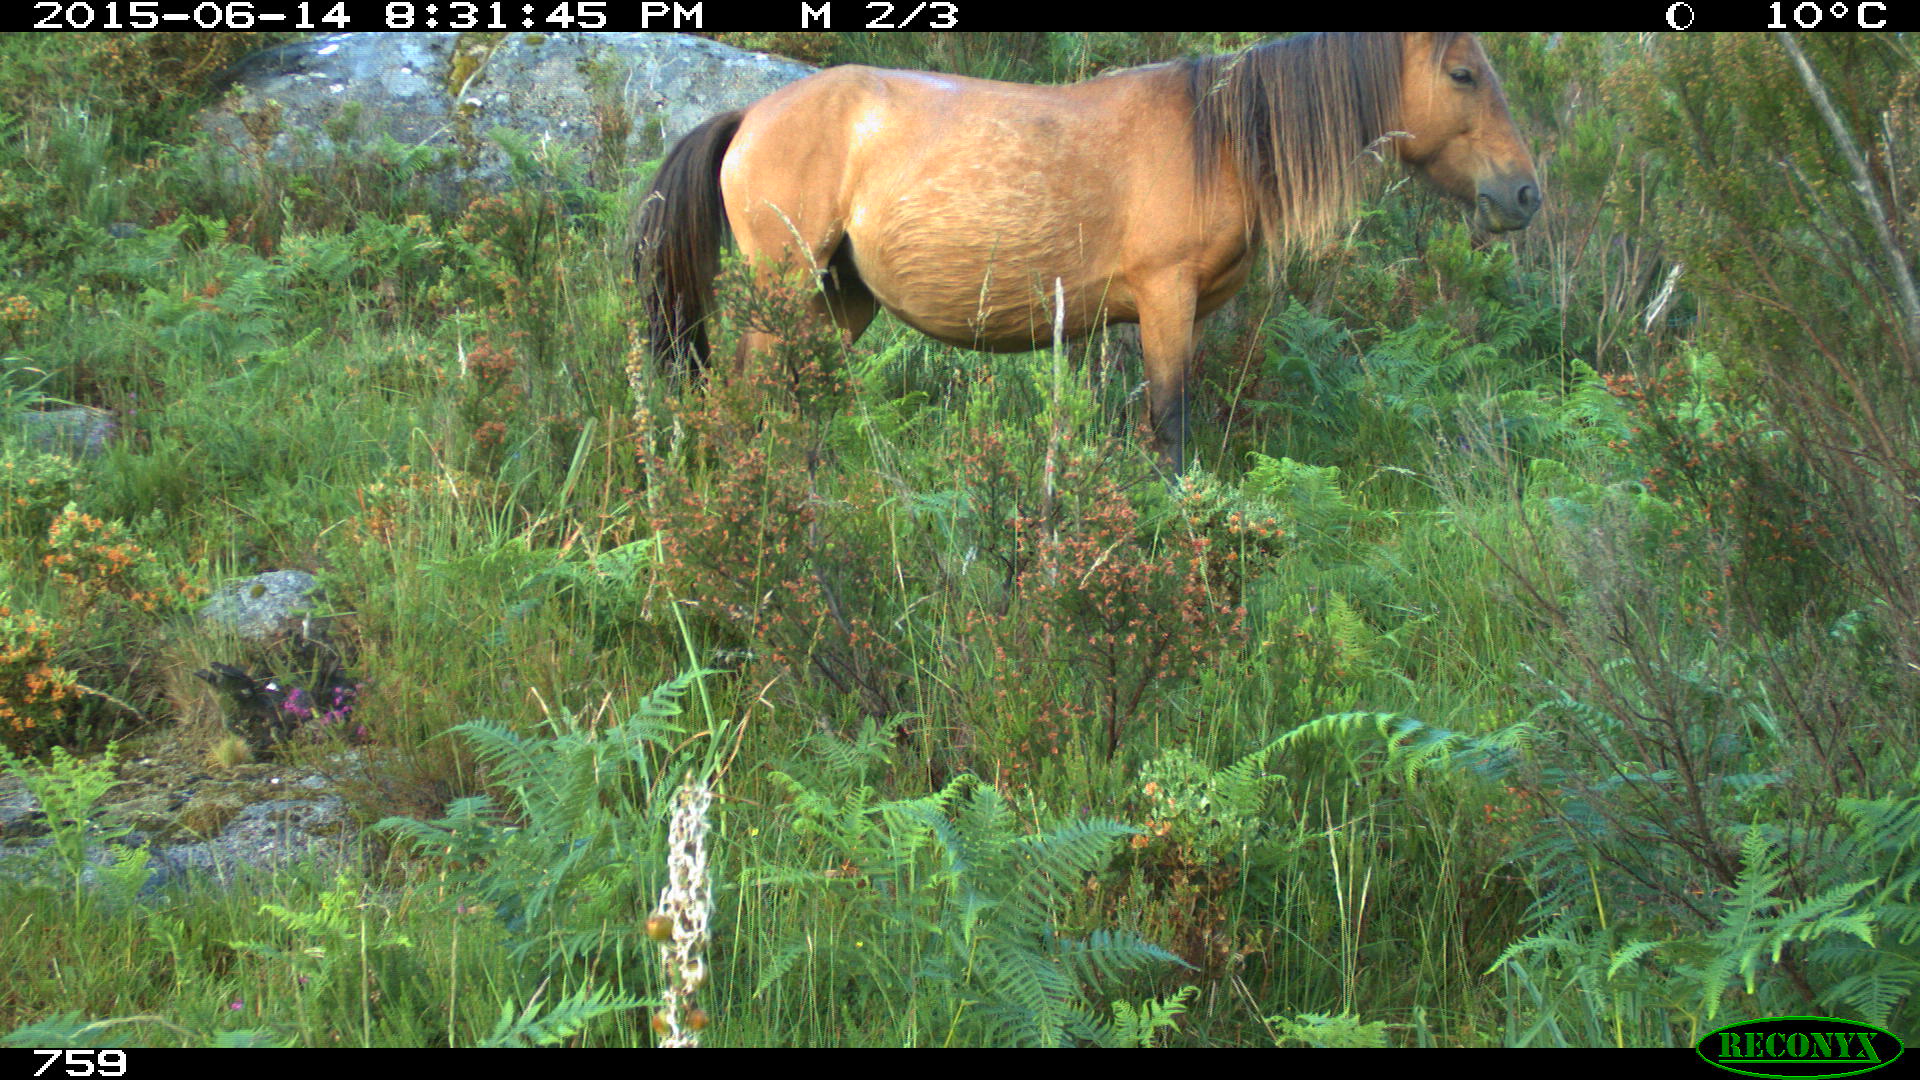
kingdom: Animalia
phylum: Chordata
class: Mammalia
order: Perissodactyla
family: Equidae
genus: Equus
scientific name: Equus caballus
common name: Horse
